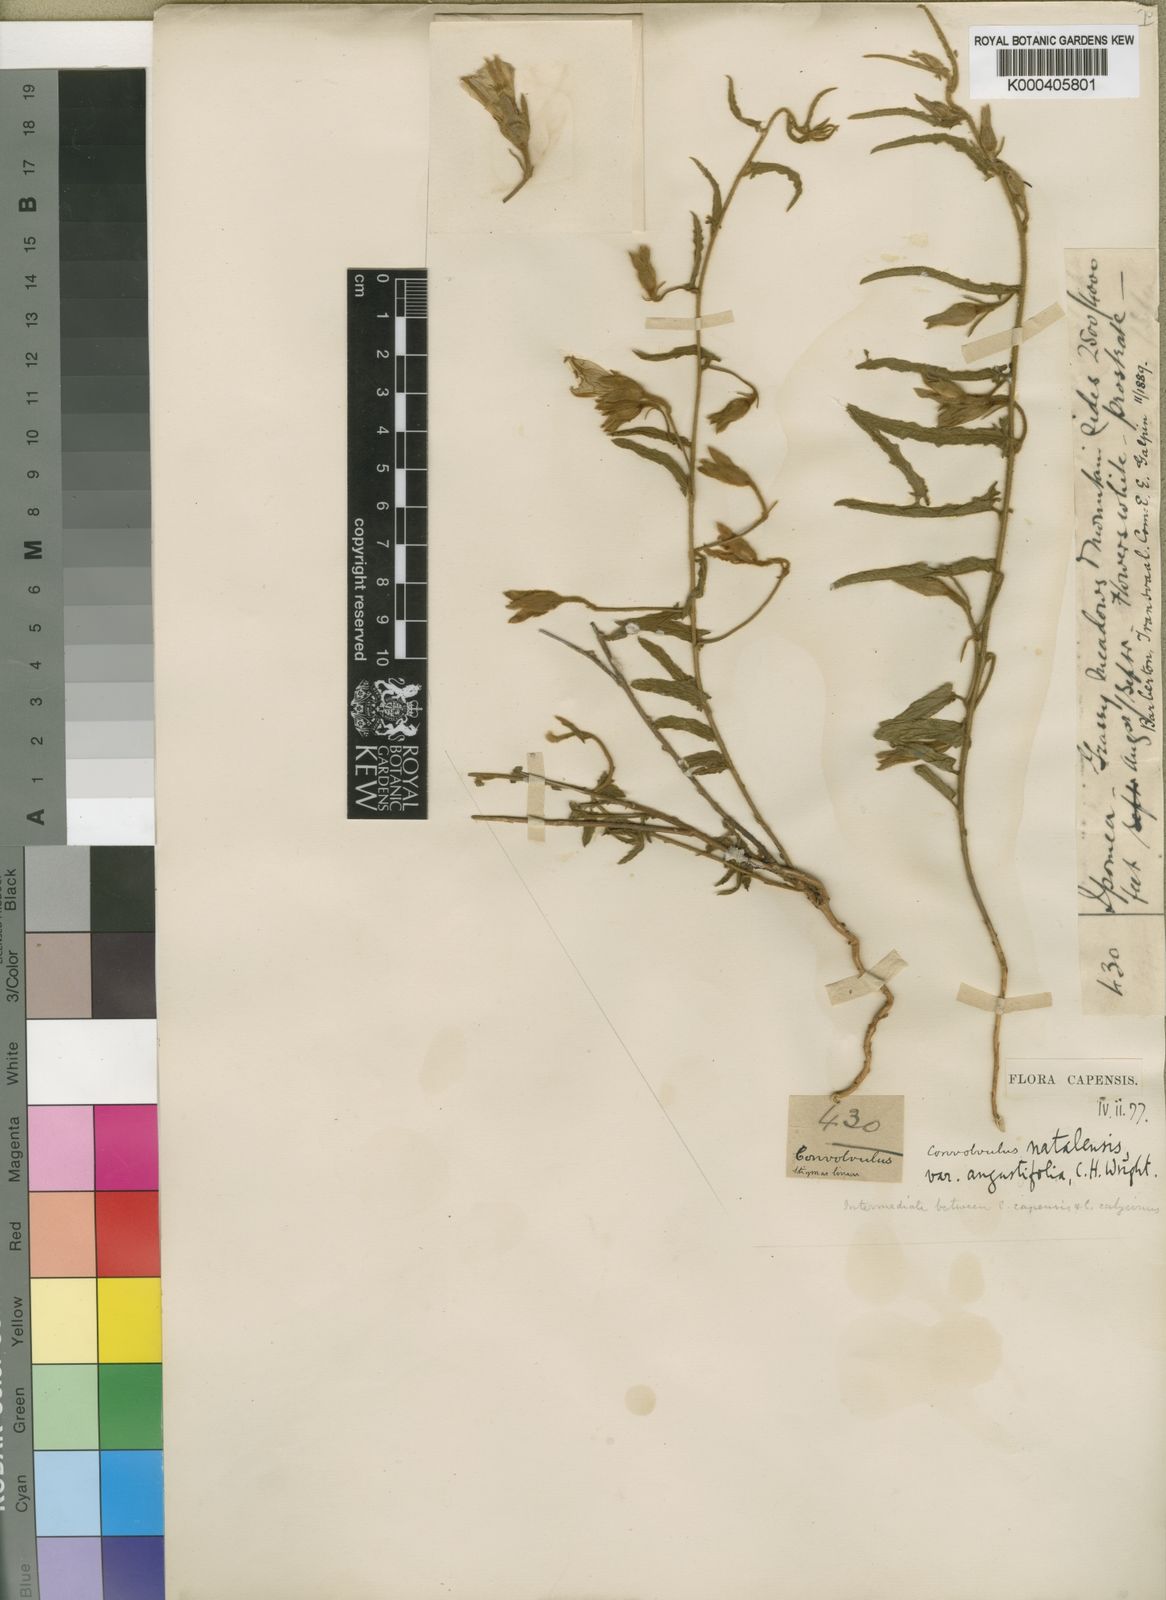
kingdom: Plantae
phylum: Tracheophyta
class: Magnoliopsida
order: Solanales
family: Convolvulaceae
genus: Convolvulus
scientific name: Convolvulus natalensis
